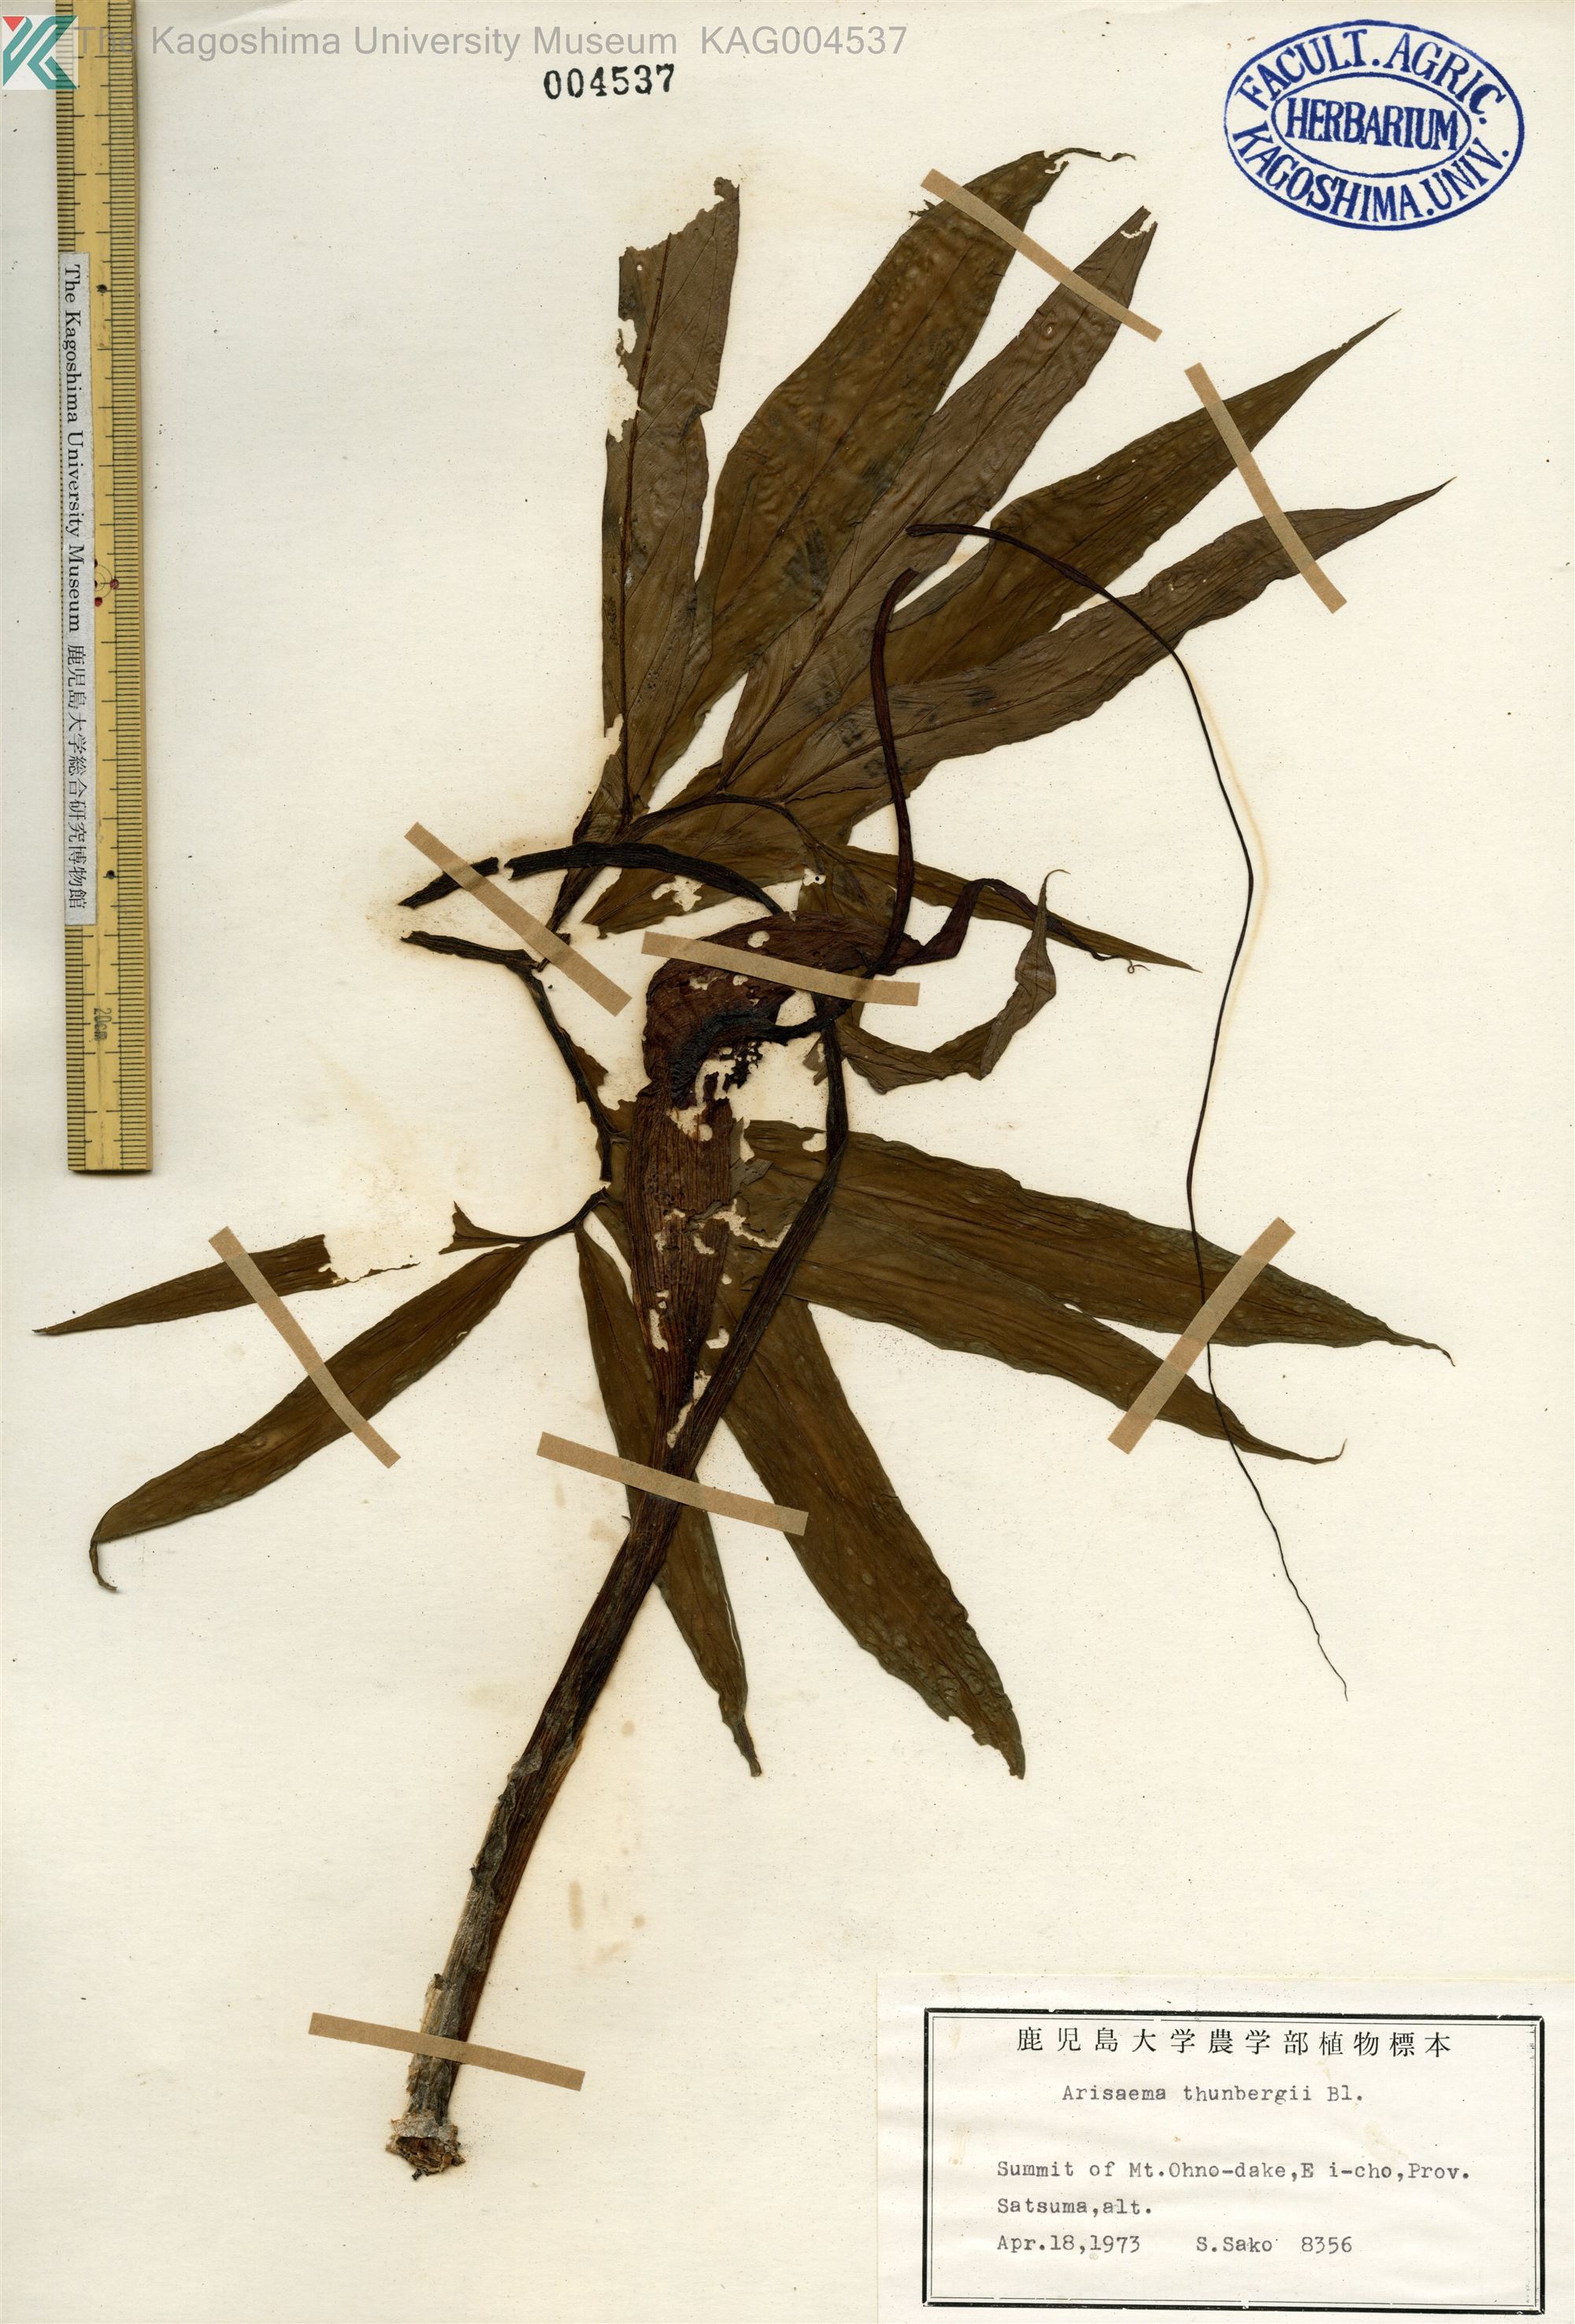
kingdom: Plantae
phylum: Tracheophyta
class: Liliopsida
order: Alismatales
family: Araceae
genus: Arisaema
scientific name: Arisaema thunbergii
